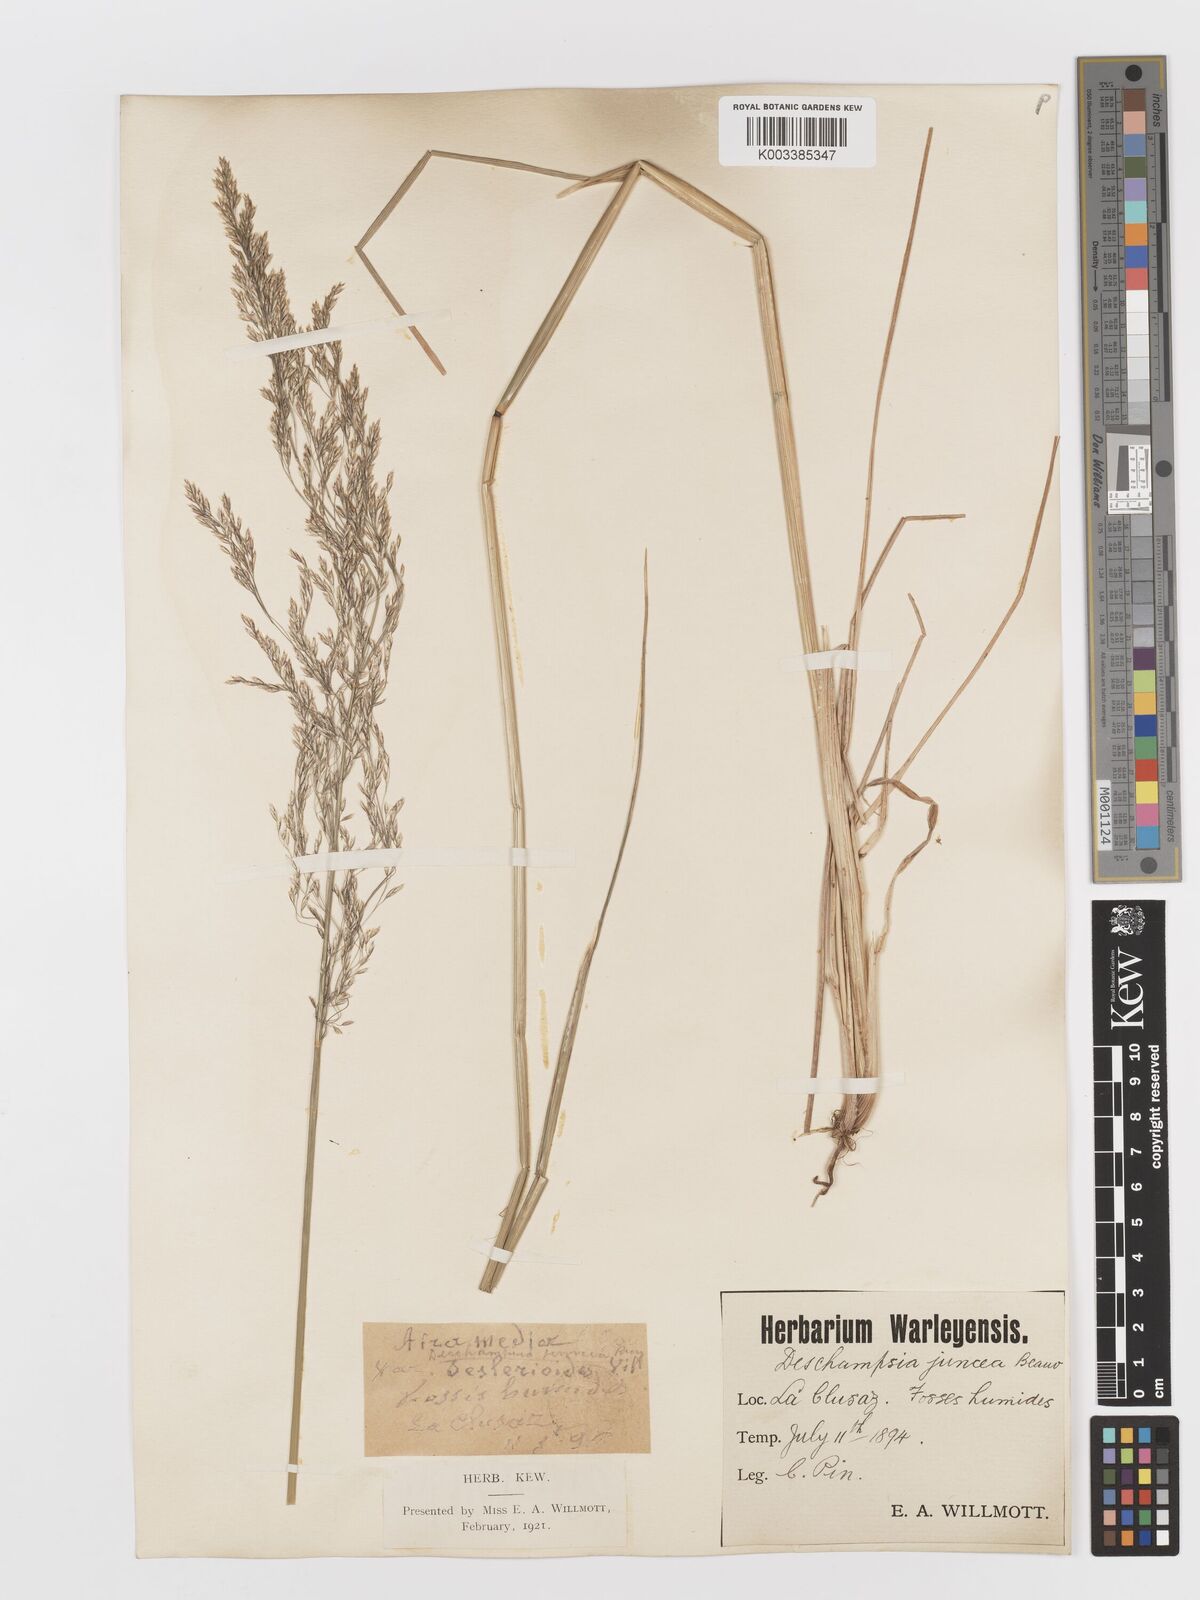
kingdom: Plantae
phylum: Tracheophyta
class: Liliopsida
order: Poales
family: Poaceae
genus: Deschampsia
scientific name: Deschampsia cespitosa
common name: Tufted hair-grass
